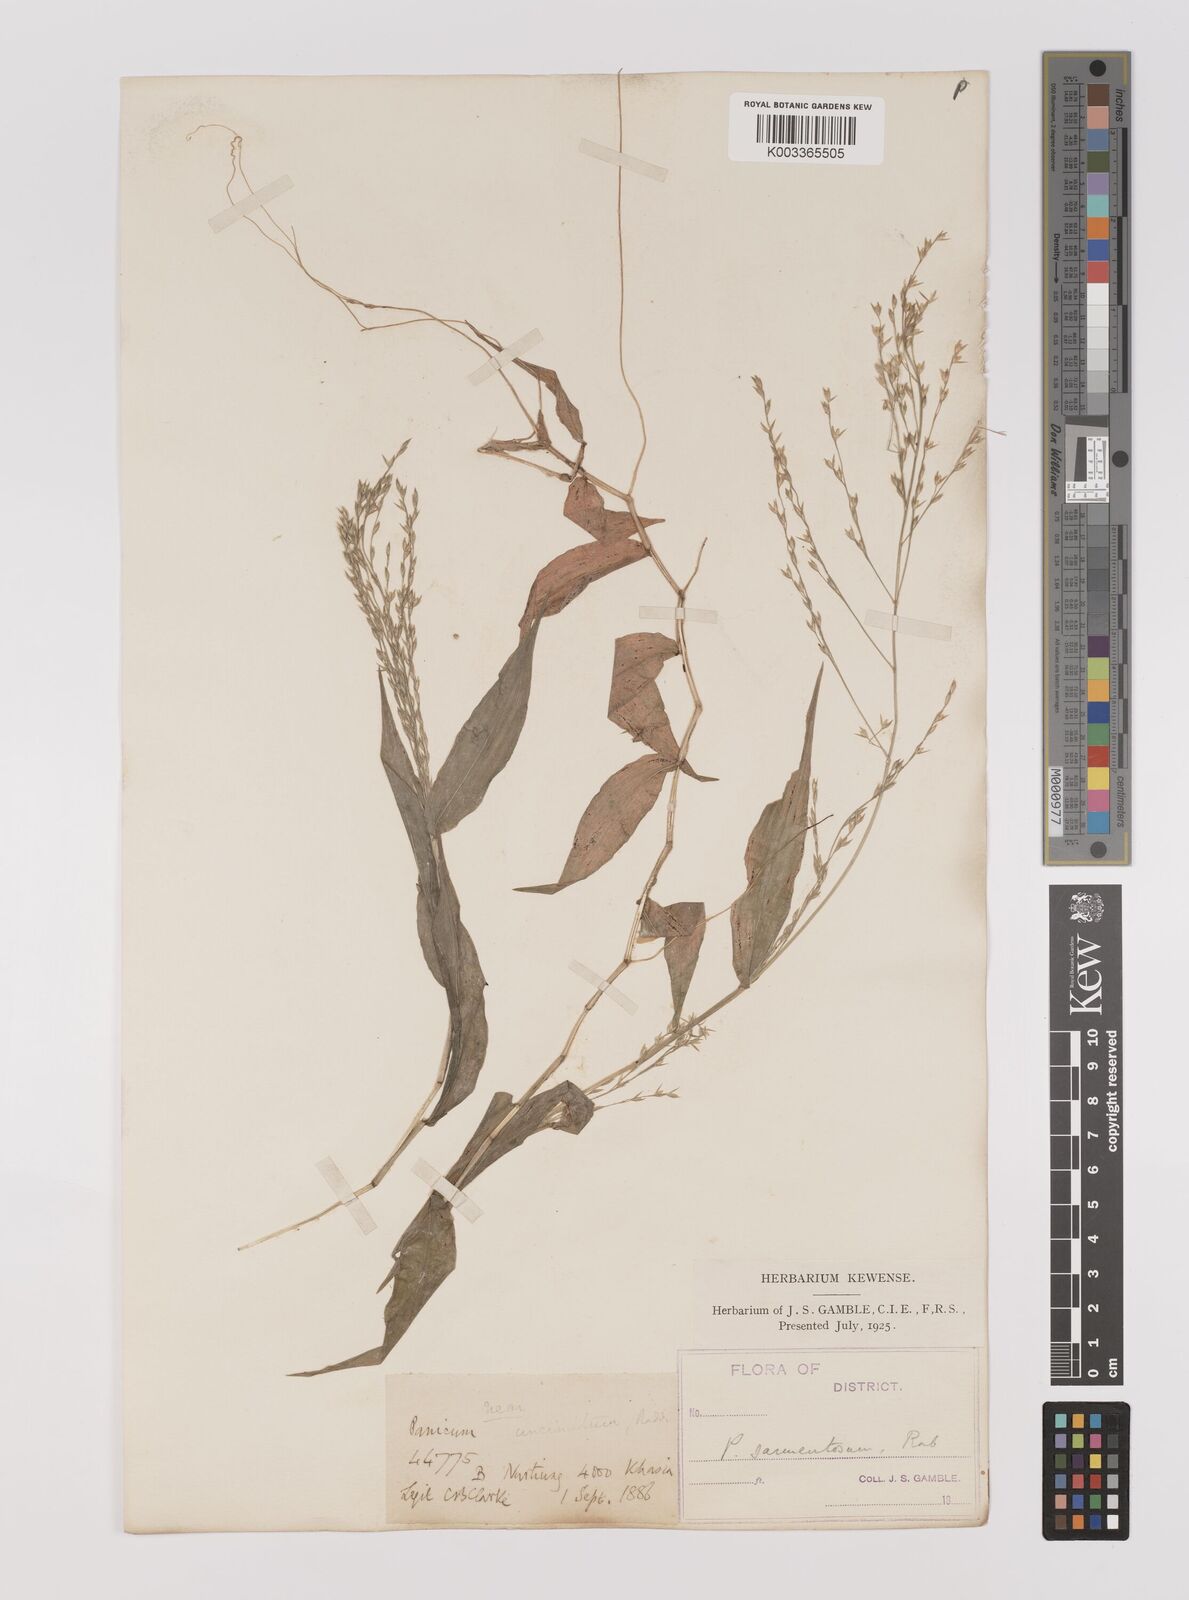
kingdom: Plantae
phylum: Tracheophyta
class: Liliopsida
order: Poales
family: Poaceae
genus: Ichnanthus
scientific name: Ichnanthus pallens
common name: Water grass
